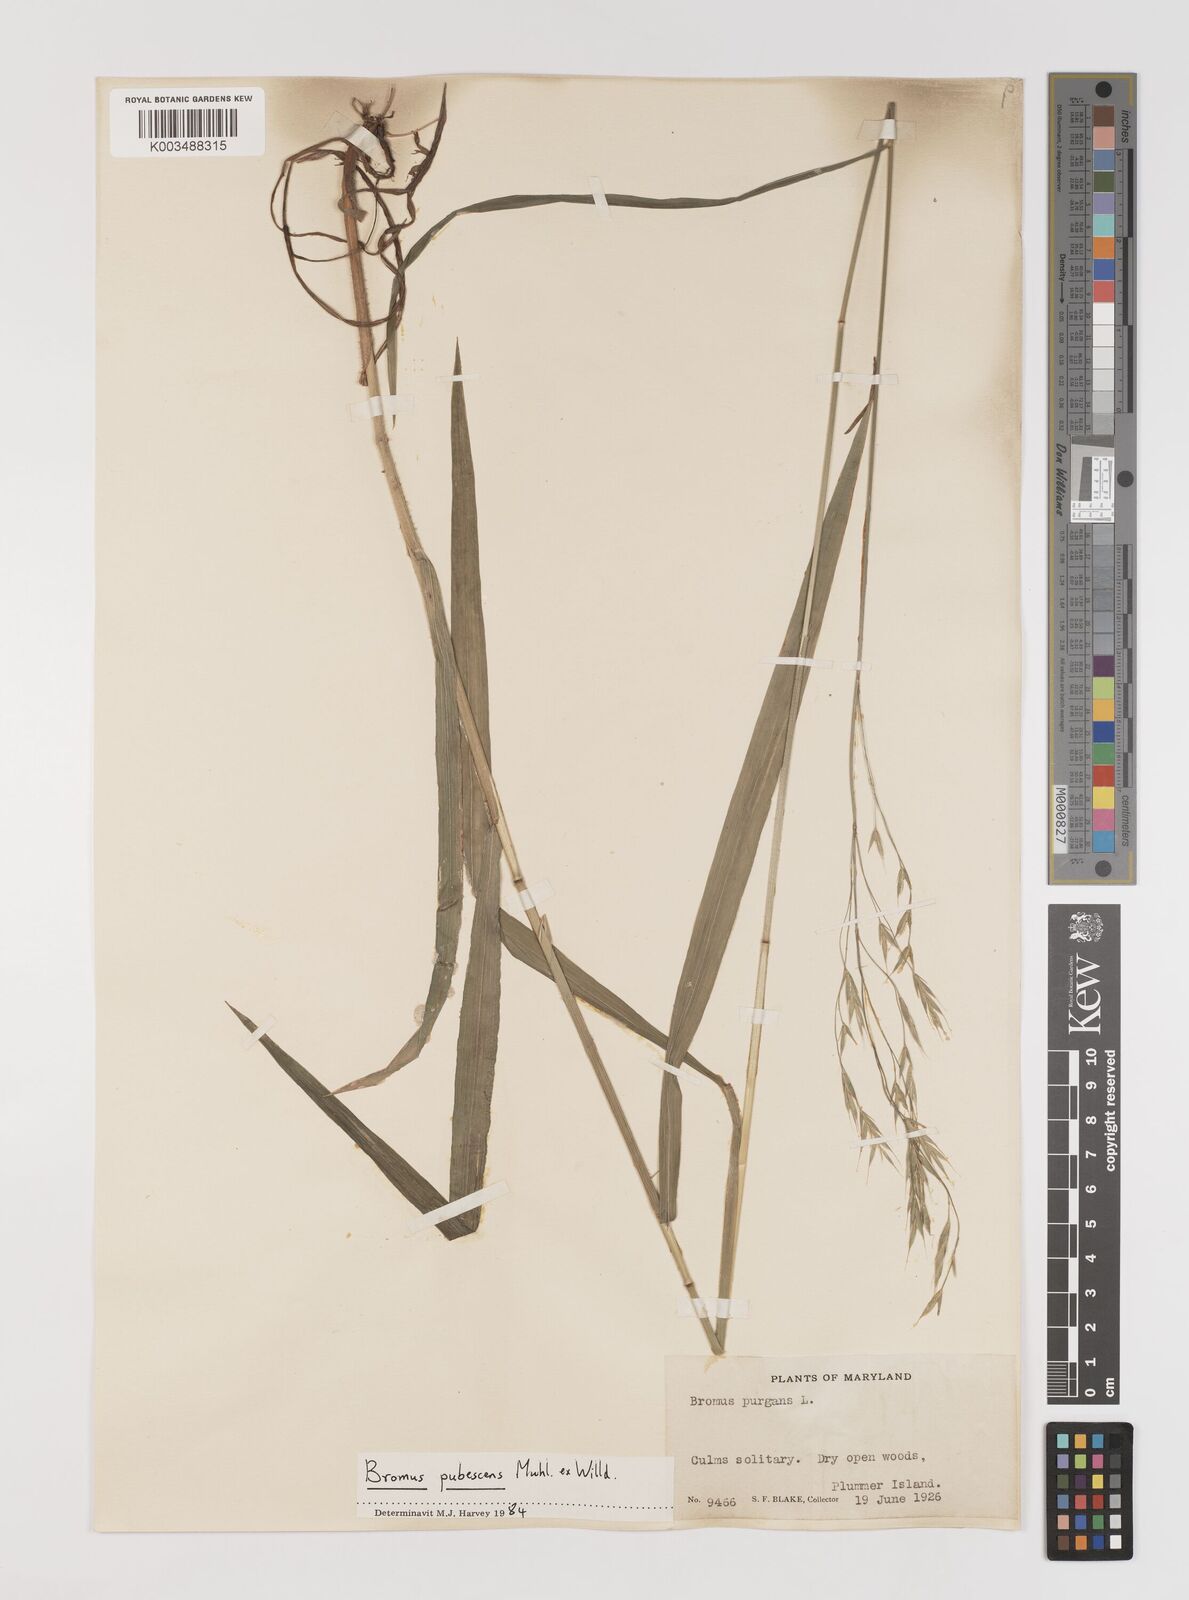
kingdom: Plantae
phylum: Tracheophyta
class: Liliopsida
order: Poales
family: Poaceae
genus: Bromus
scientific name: Bromus pubescens
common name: Hairy wood brome grass
